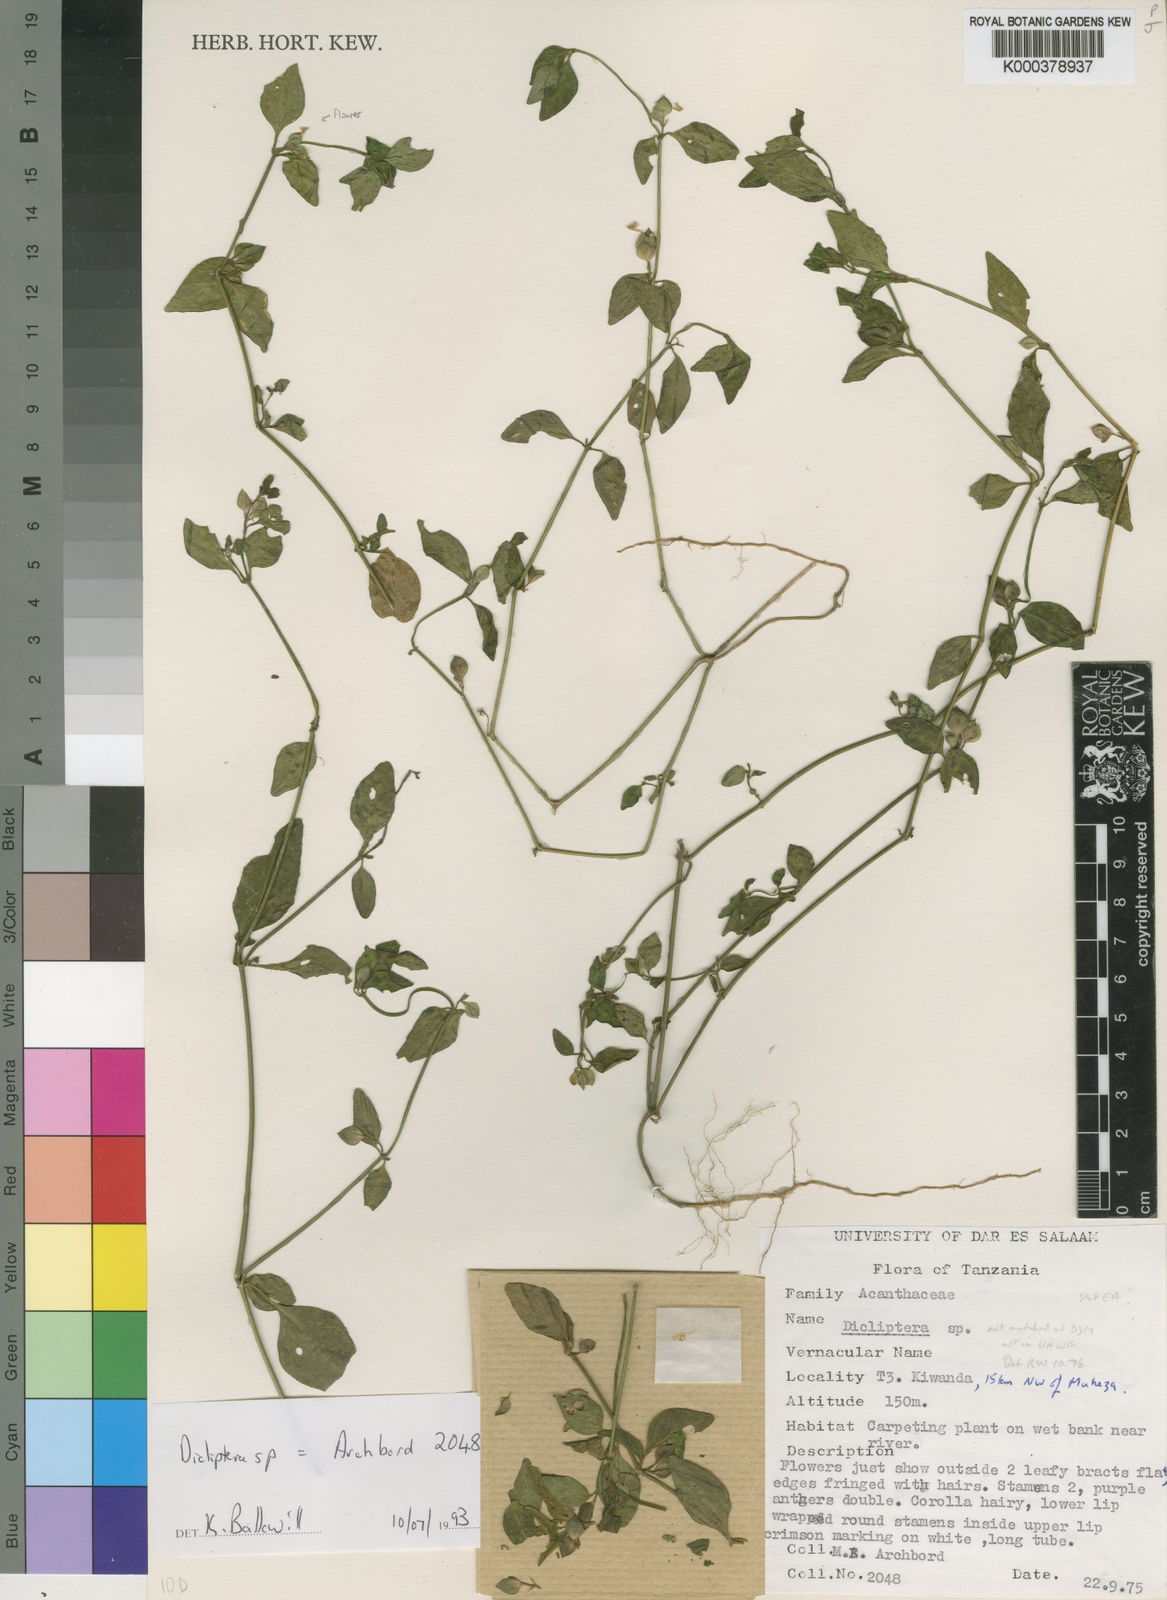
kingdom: Plantae
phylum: Tracheophyta
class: Magnoliopsida
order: Lamiales
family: Acanthaceae
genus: Dicliptera
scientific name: Dicliptera inconspicua
